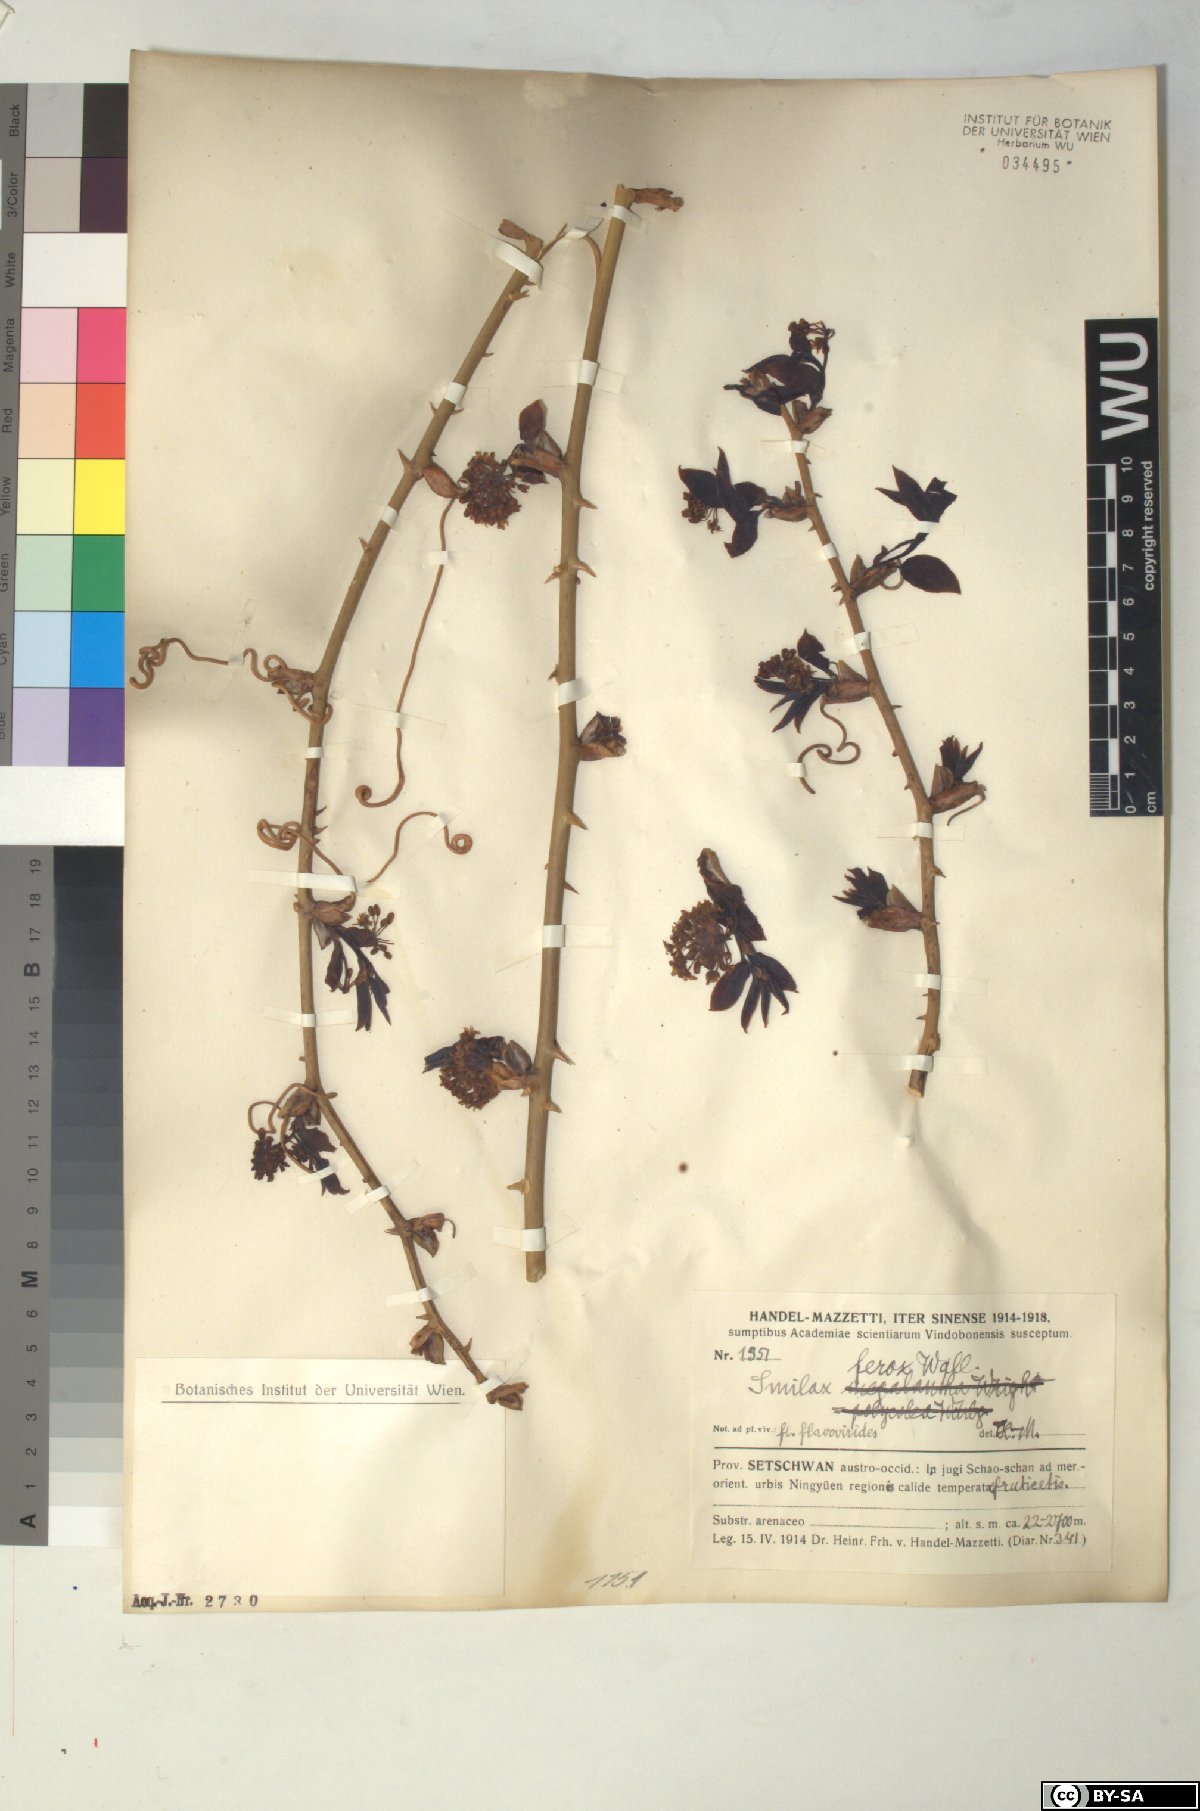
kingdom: Plantae
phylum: Tracheophyta
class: Liliopsida
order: Liliales
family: Smilacaceae
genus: Smilax
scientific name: Smilax ferox
